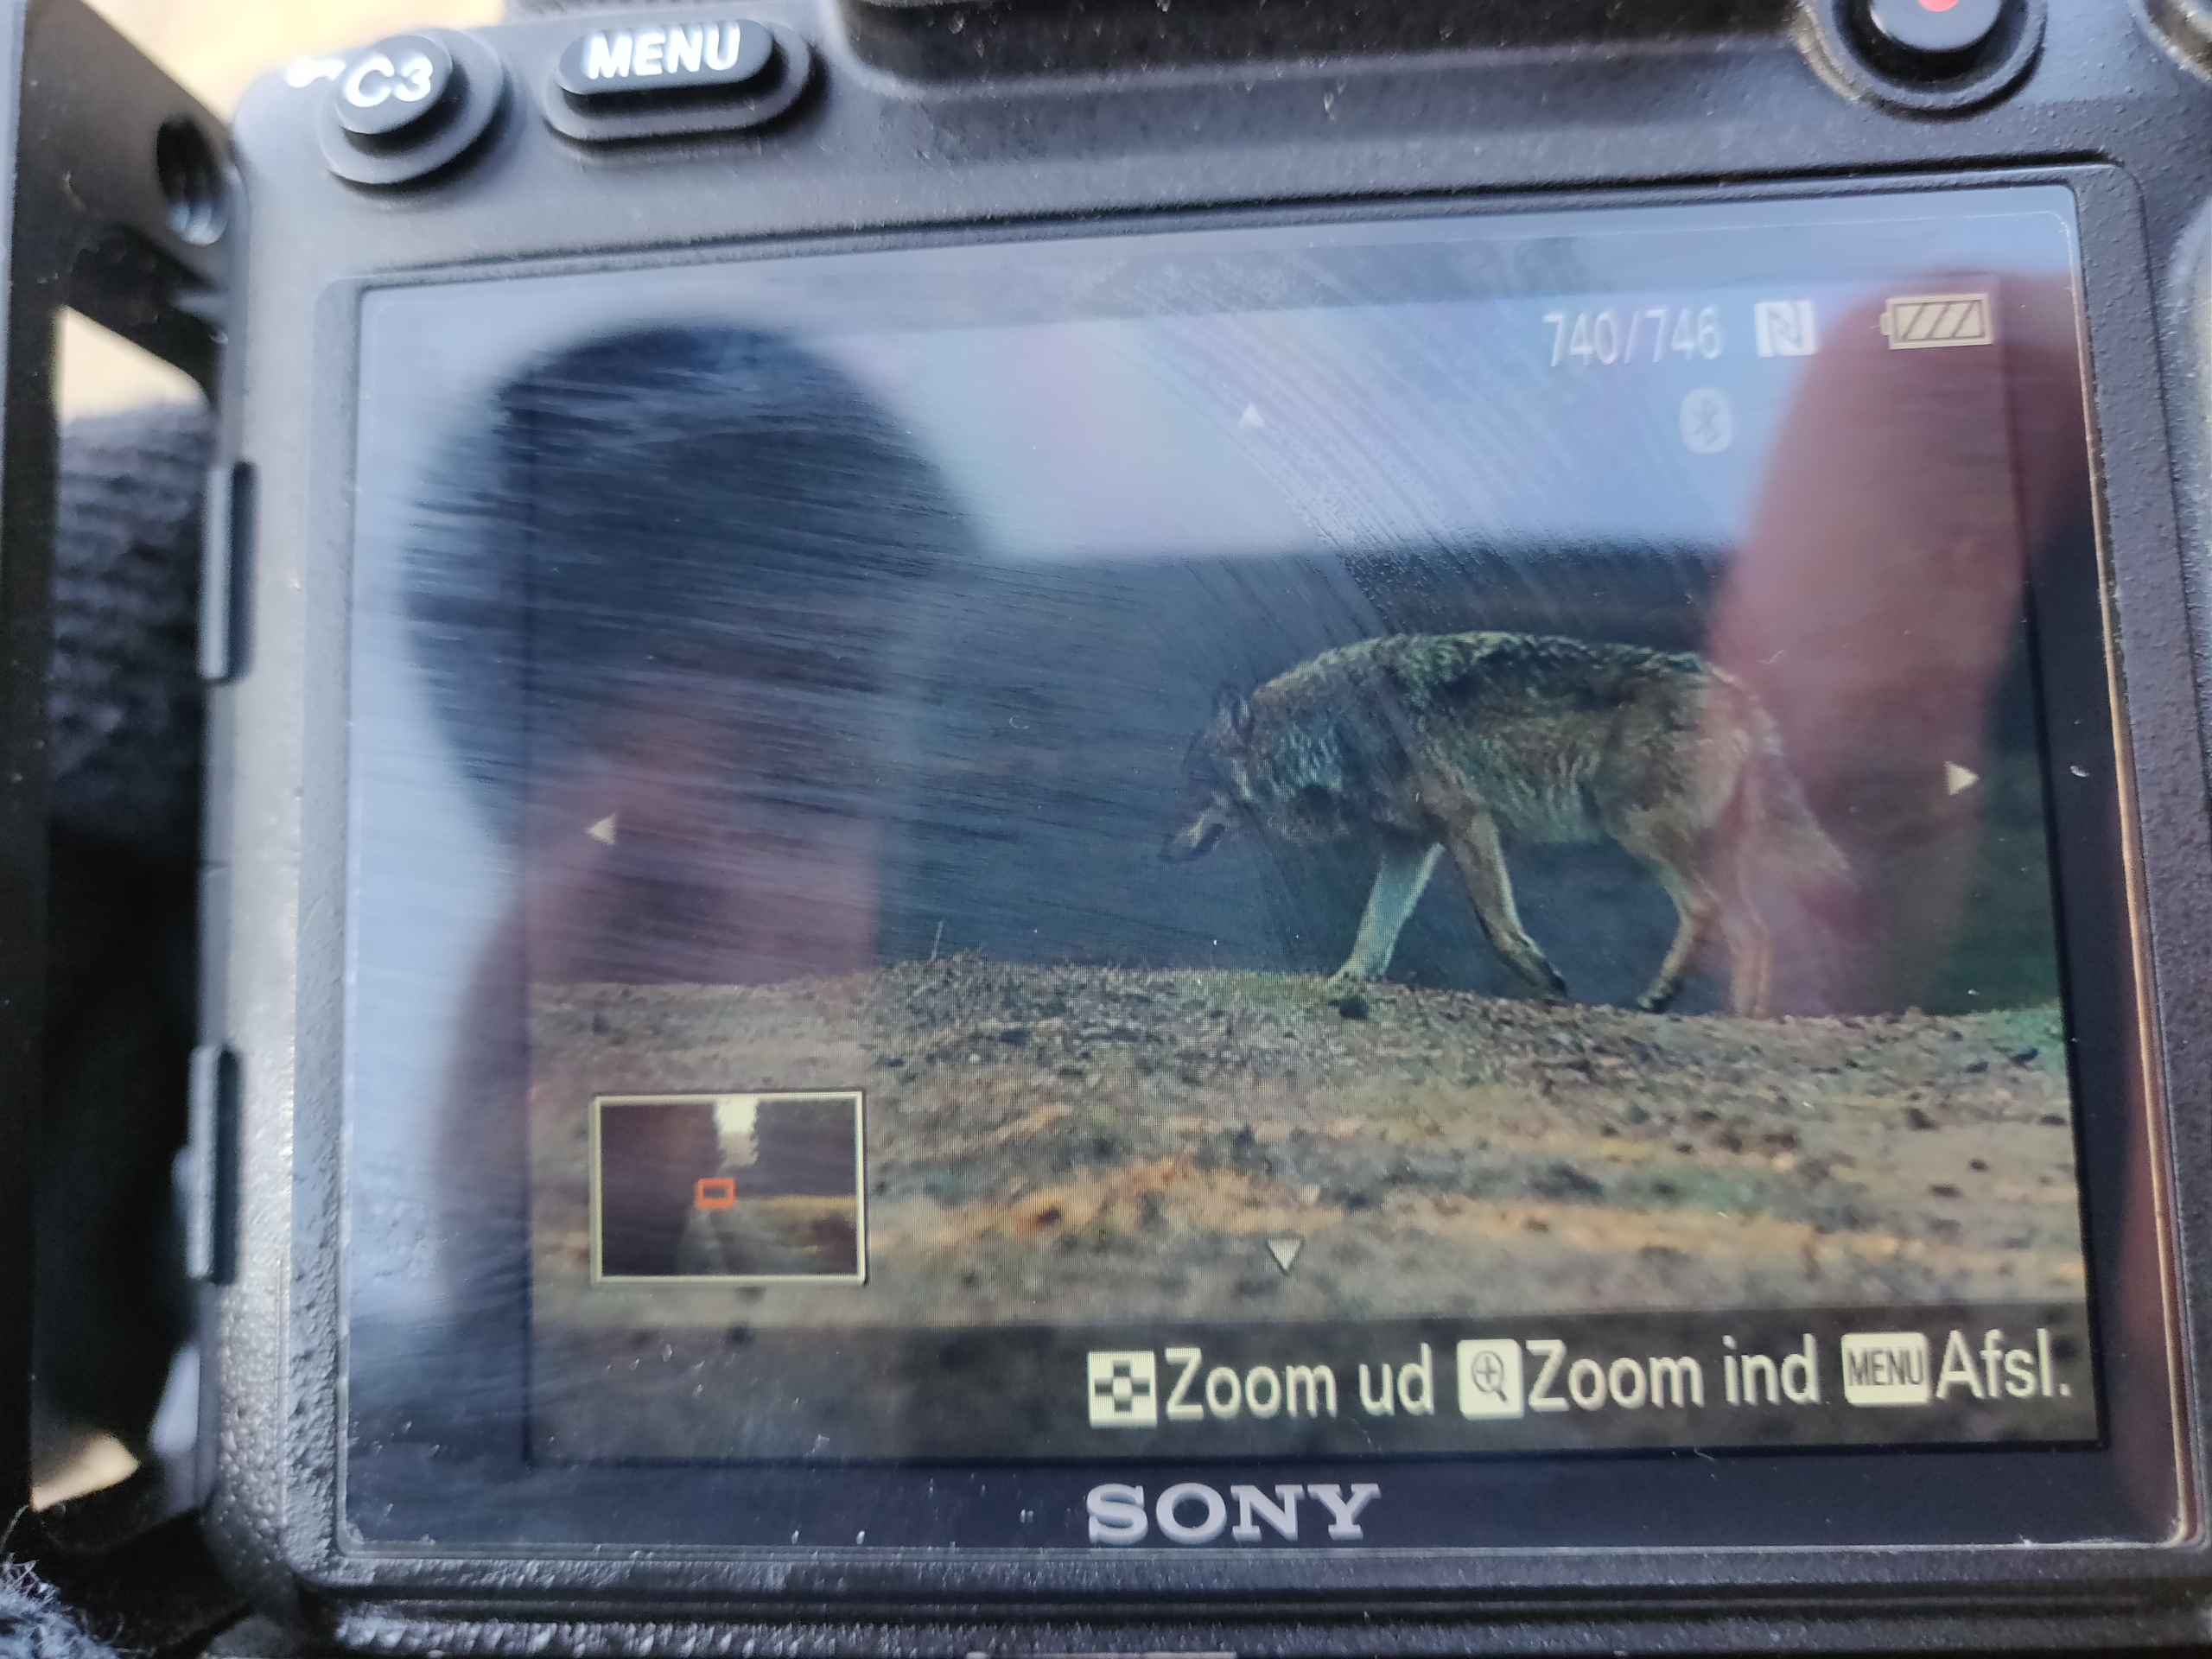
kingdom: Animalia
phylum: Chordata
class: Mammalia
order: Carnivora
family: Canidae
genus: Canis
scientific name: Canis lupus
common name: Ulv
